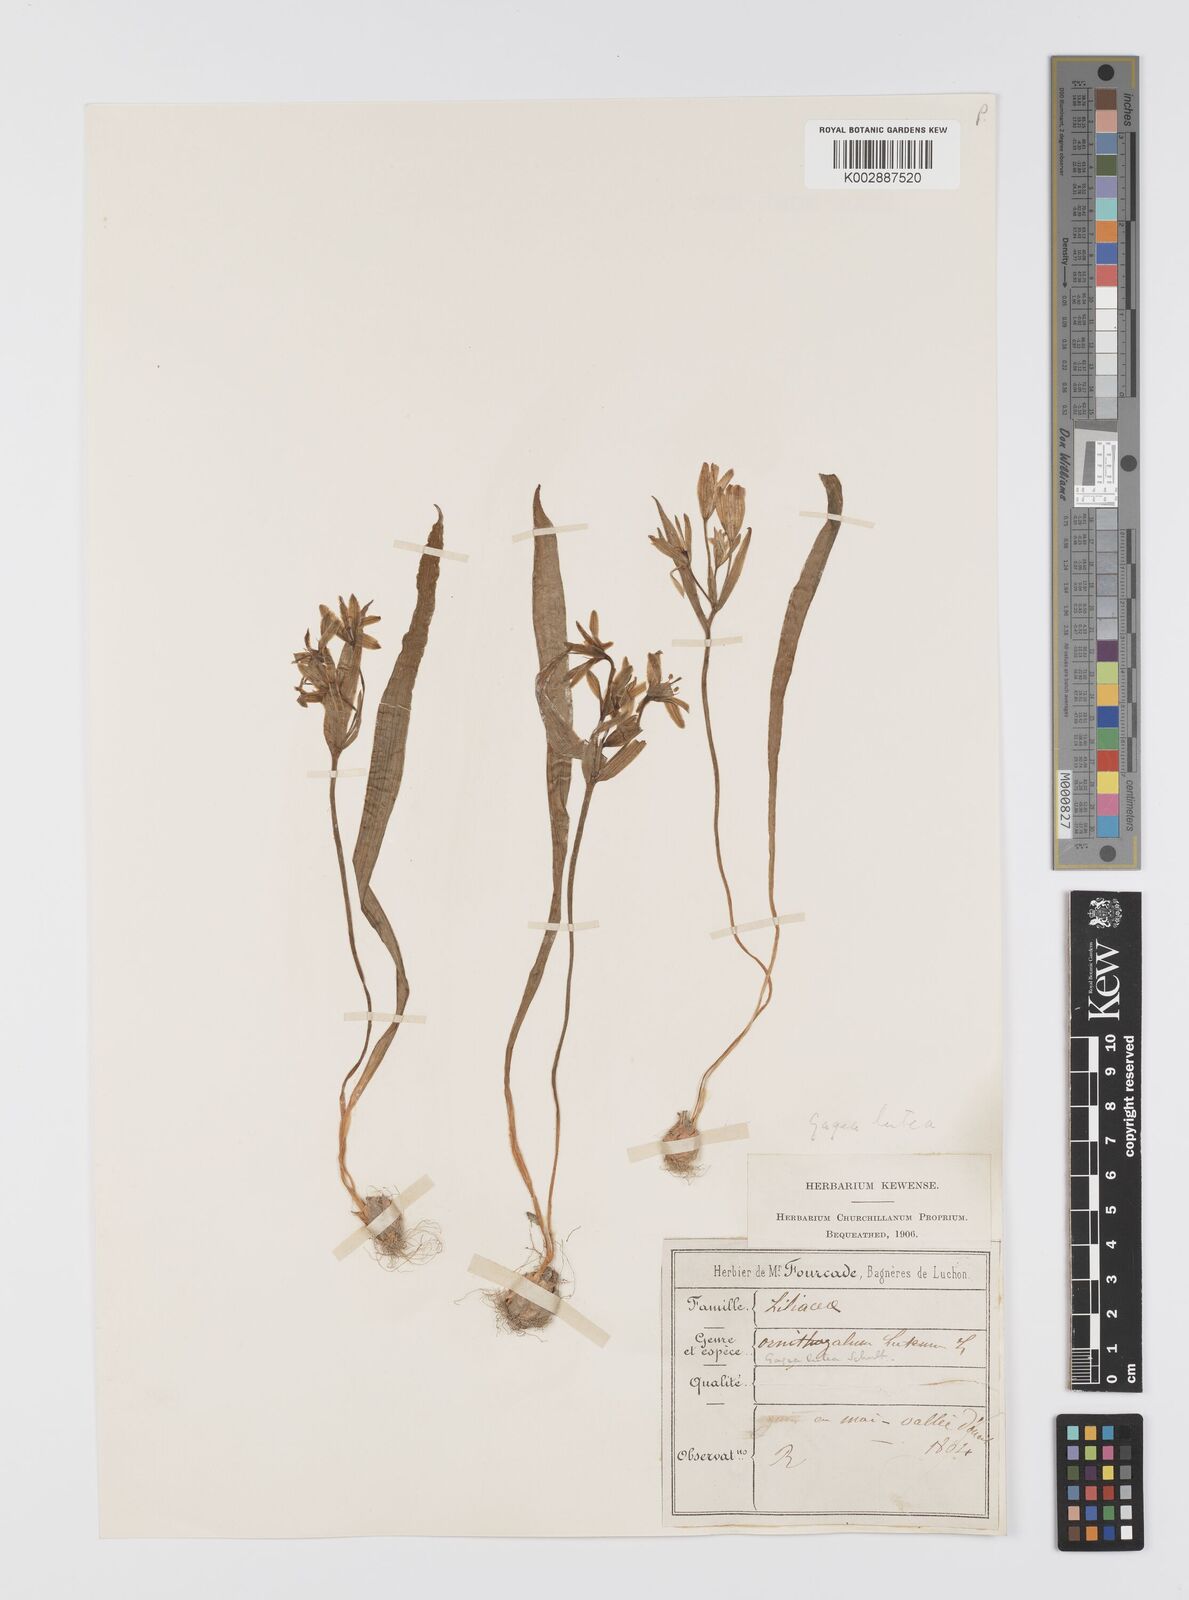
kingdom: Plantae
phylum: Tracheophyta
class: Liliopsida
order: Liliales
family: Liliaceae
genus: Gagea
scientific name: Gagea lutea
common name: Yellow star-of-bethlehem
